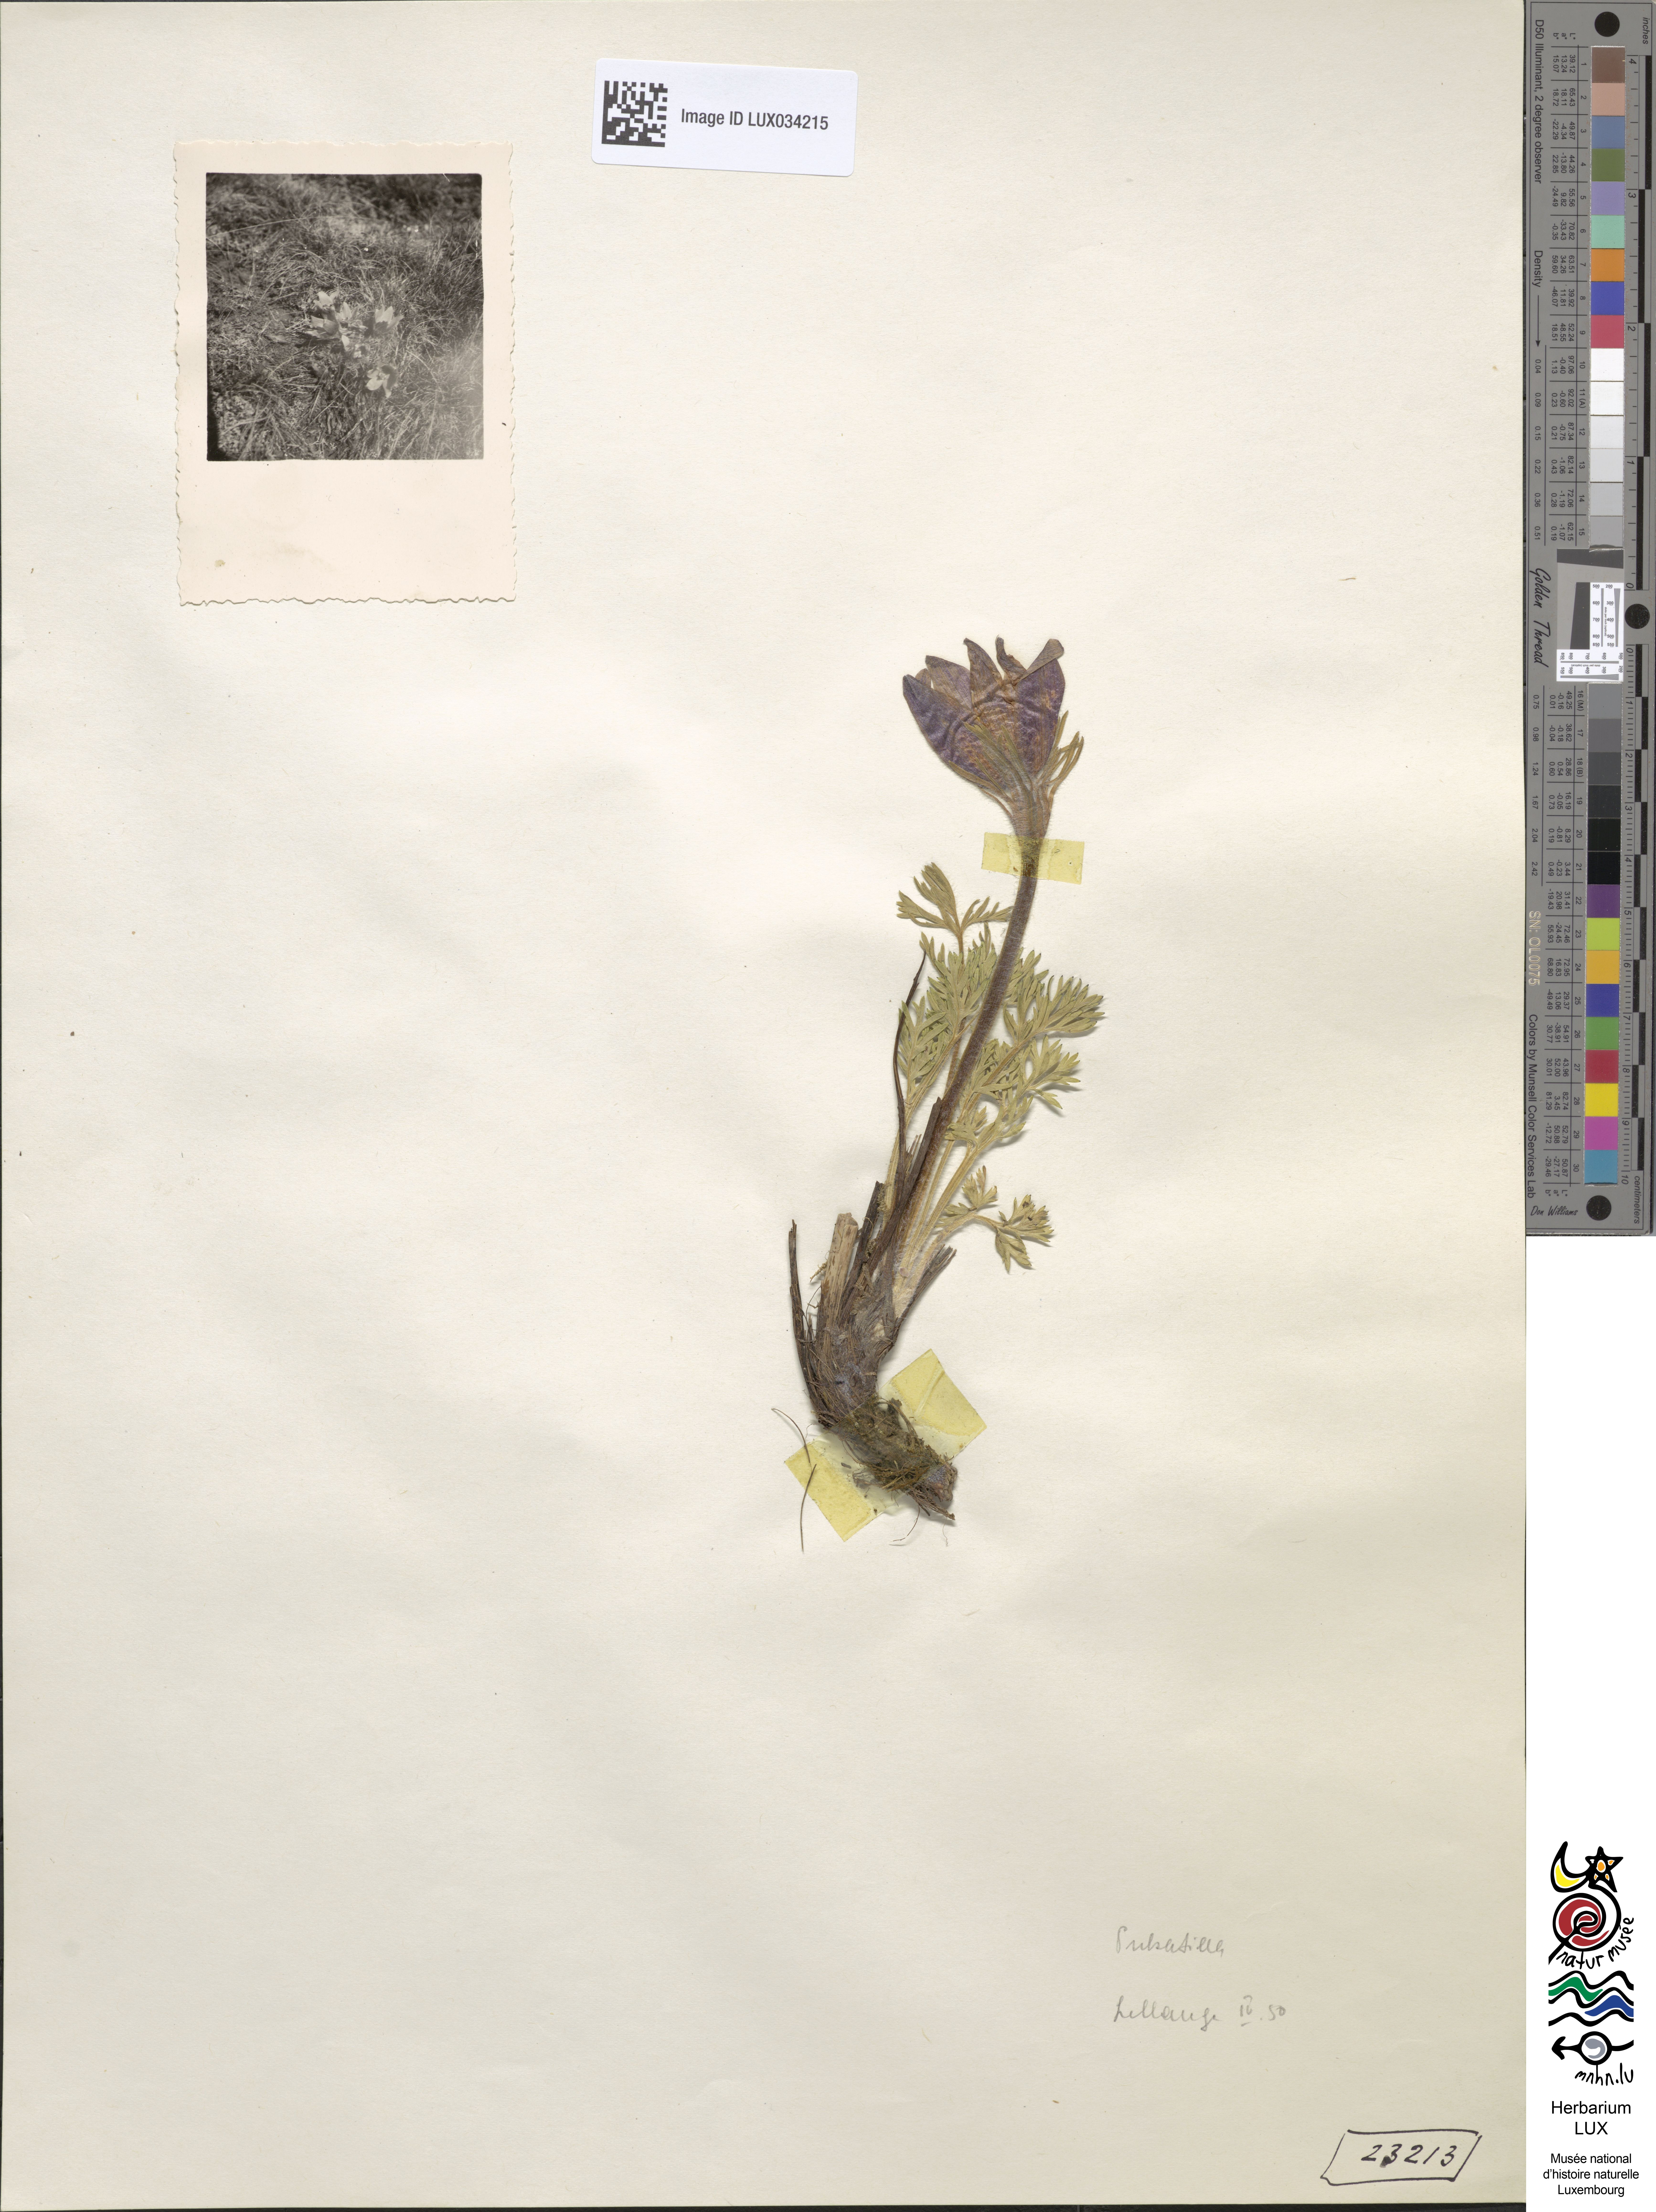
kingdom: Plantae
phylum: Tracheophyta
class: Magnoliopsida
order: Ranunculales
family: Ranunculaceae
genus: Pulsatilla
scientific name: Pulsatilla vulgaris
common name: Pasqueflower
